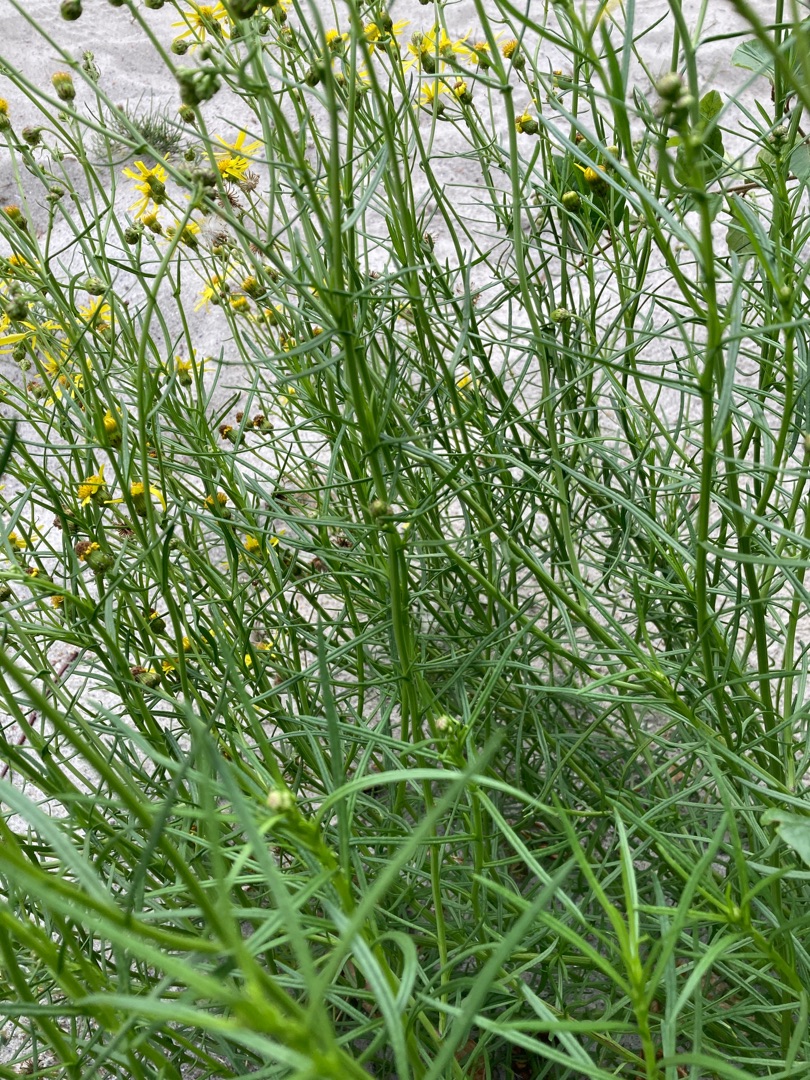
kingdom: Plantae
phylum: Tracheophyta
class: Magnoliopsida
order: Asterales
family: Asteraceae
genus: Senecio
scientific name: Senecio inaequidens
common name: Smalbladet brandbæger
